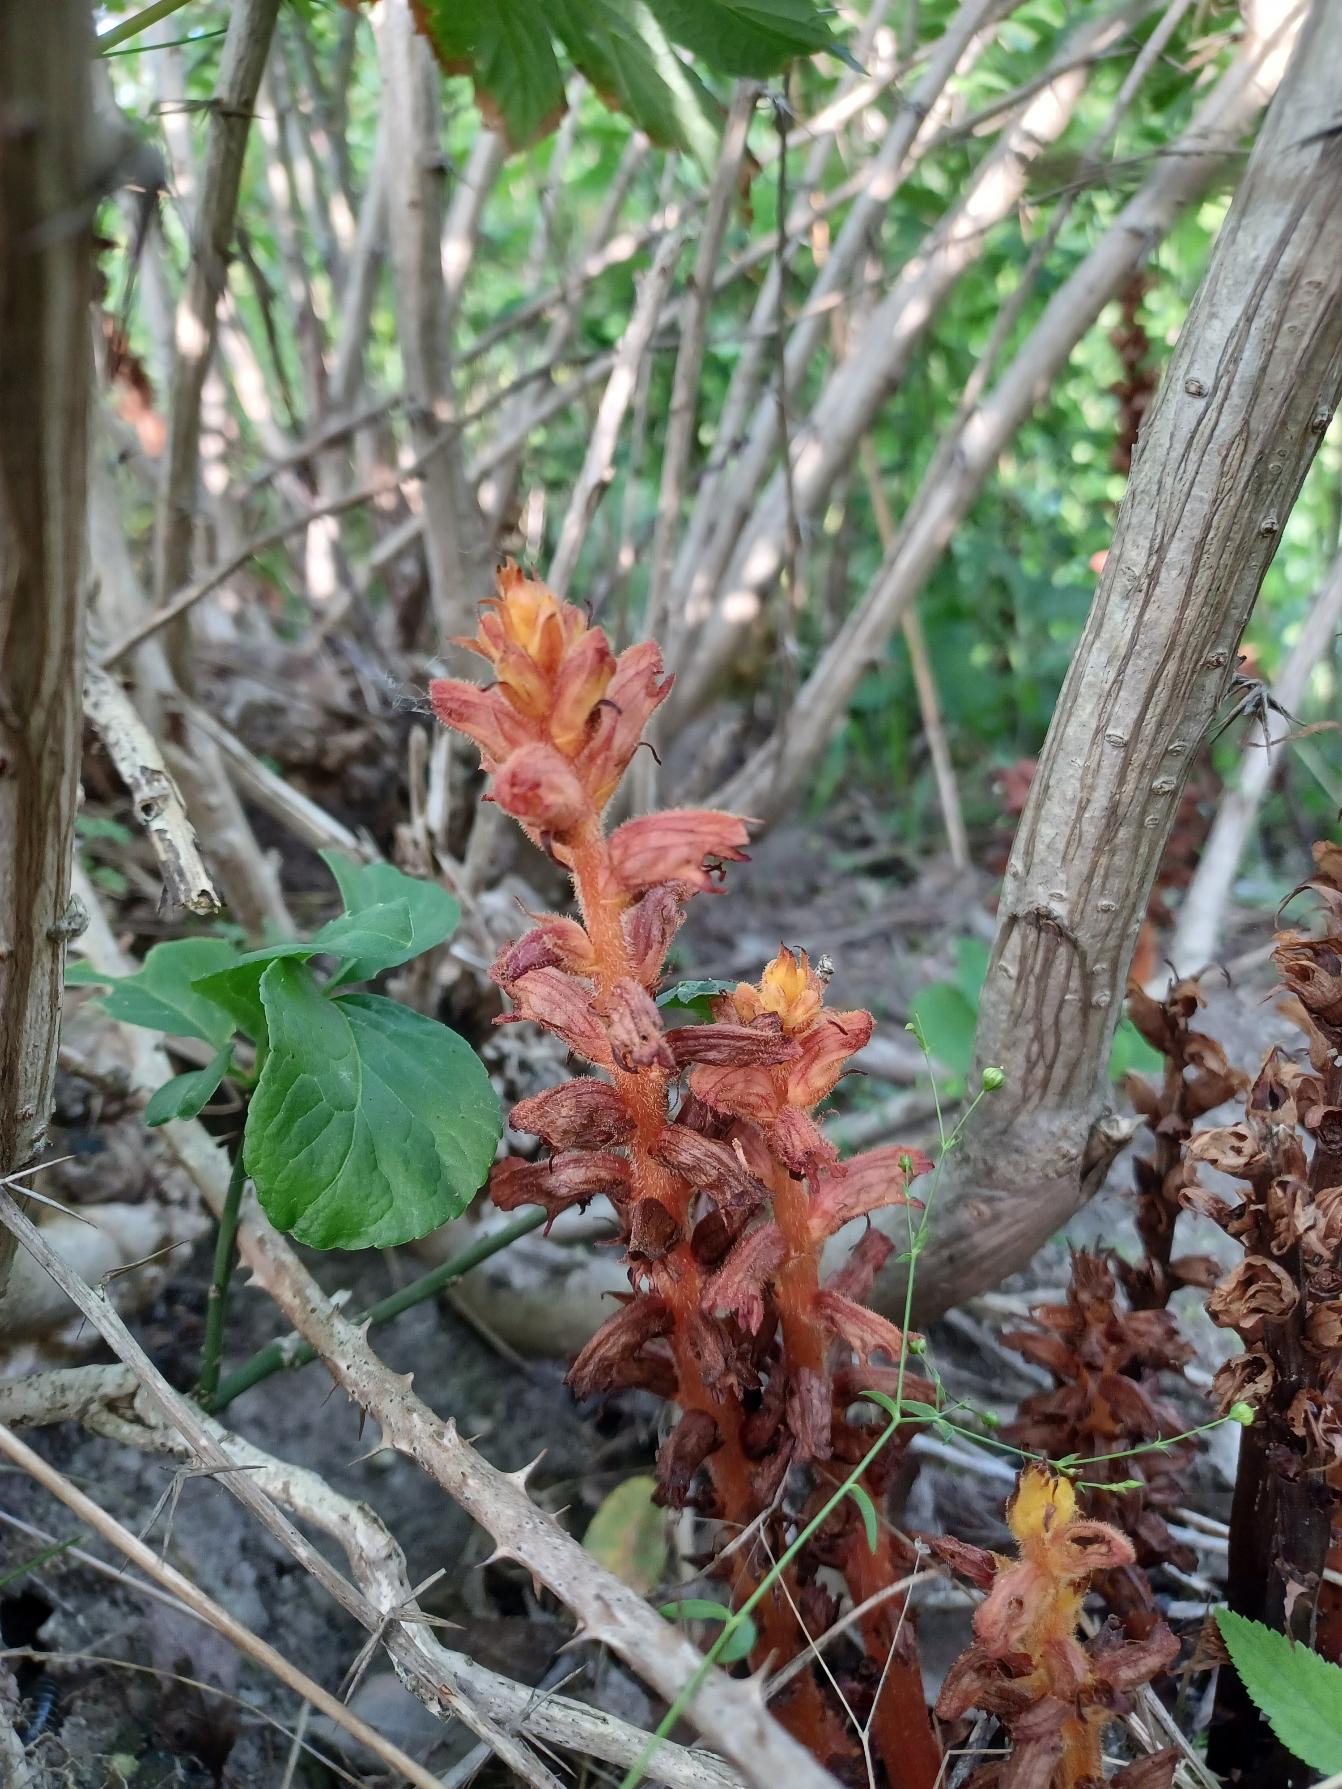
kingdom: Plantae
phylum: Tracheophyta
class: Magnoliopsida
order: Lamiales
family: Orobanchaceae
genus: Orobanche
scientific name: Orobanche lucorum
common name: Berberis-gyvelkvæler
